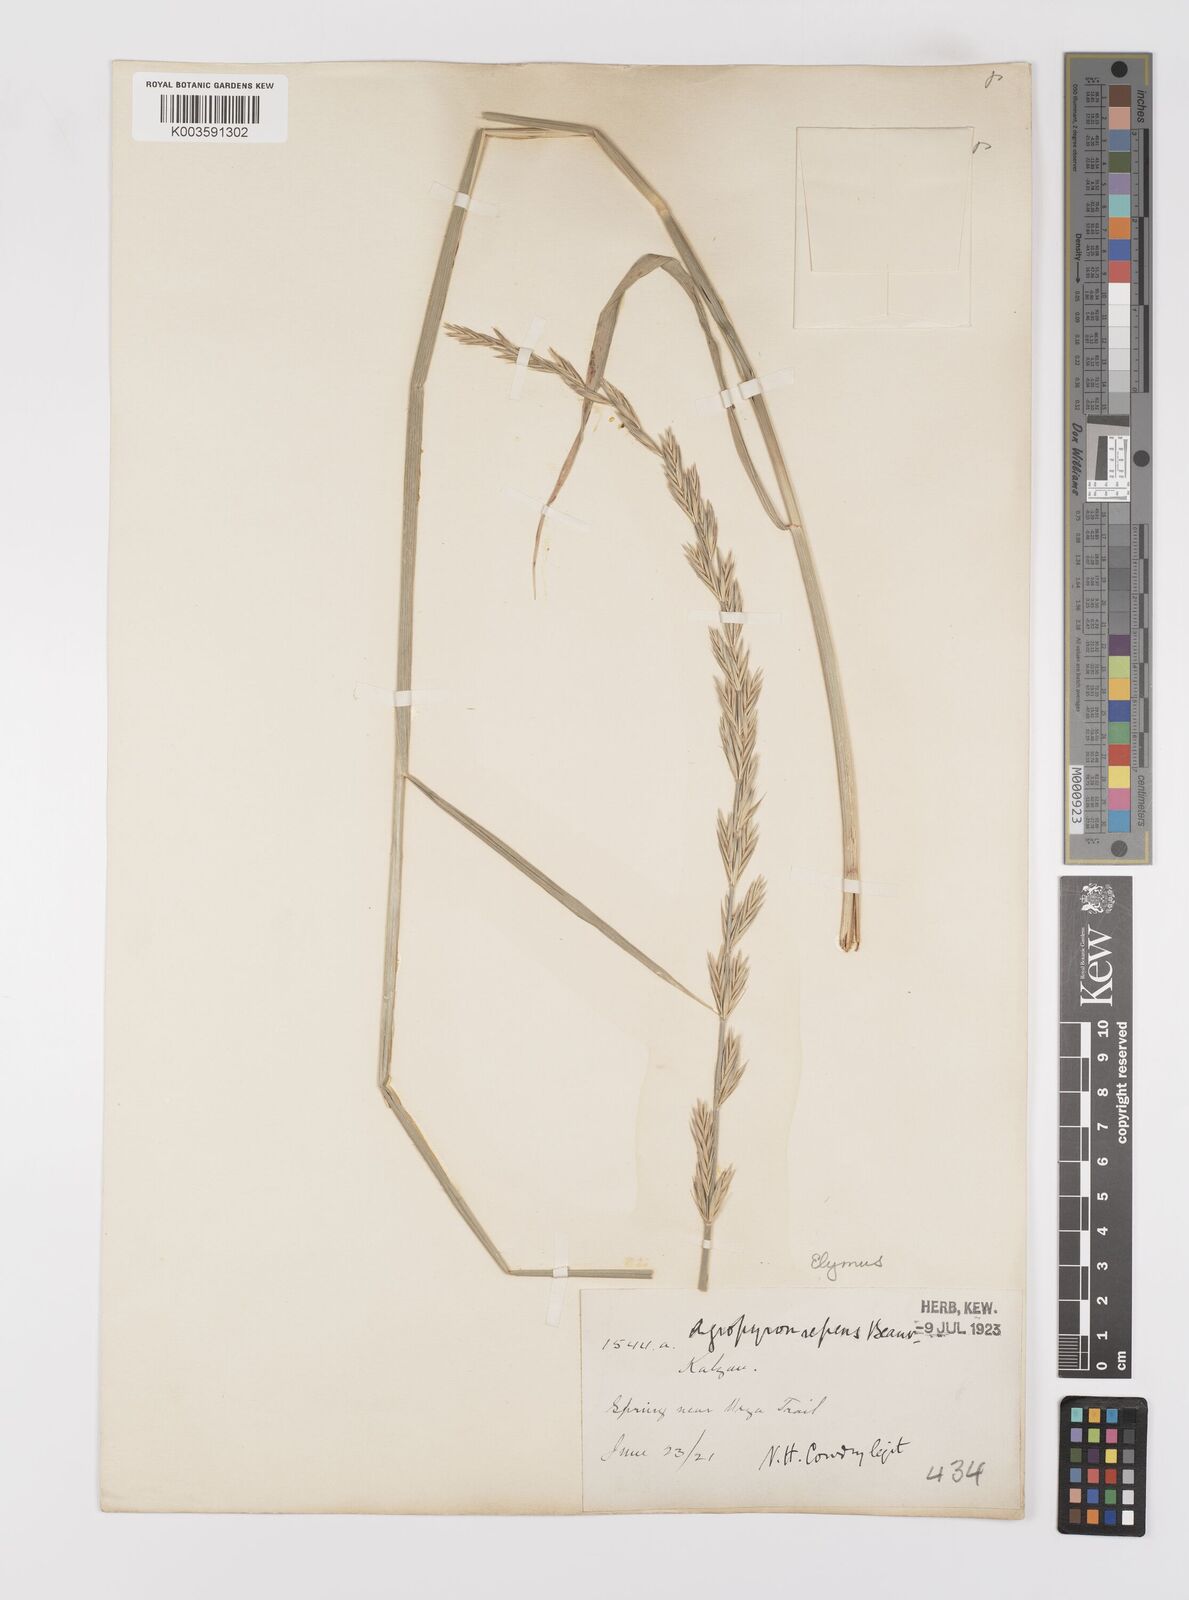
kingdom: Plantae
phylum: Tracheophyta
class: Liliopsida
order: Poales
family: Poaceae
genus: Leymus
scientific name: Leymus
